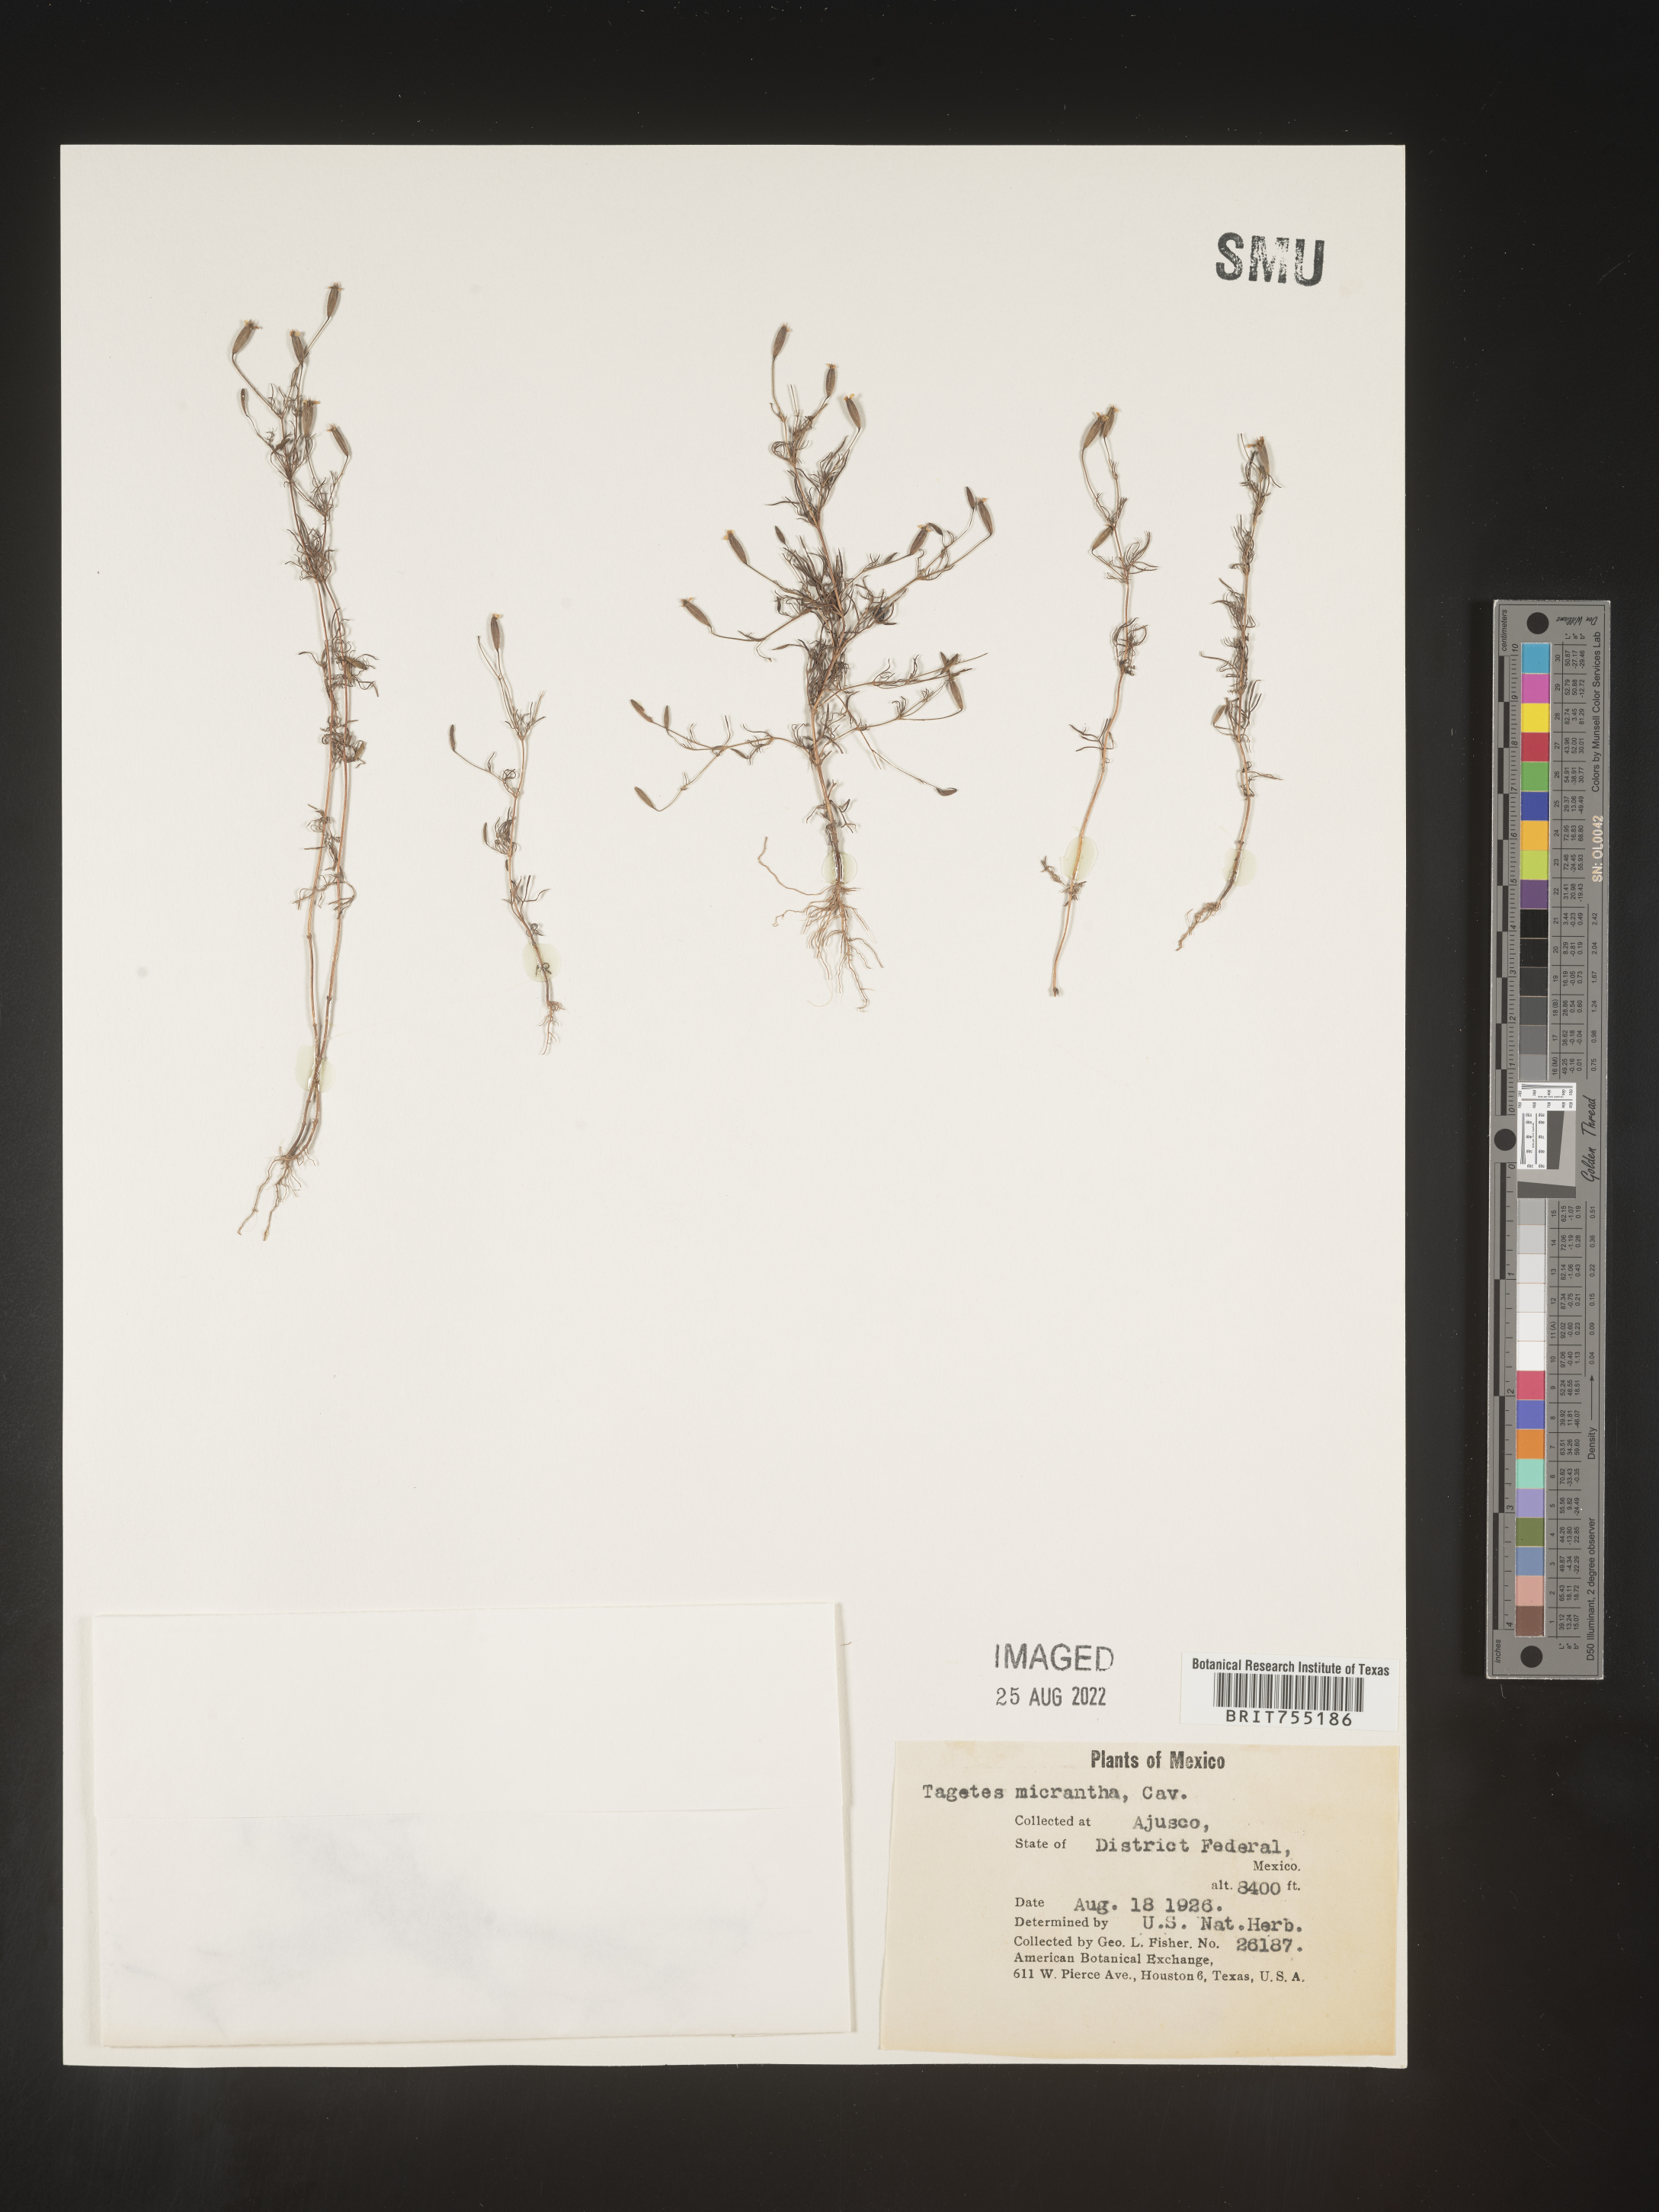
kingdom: Plantae
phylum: Tracheophyta
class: Magnoliopsida
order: Asterales
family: Asteraceae
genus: Tagetes
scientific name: Tagetes
